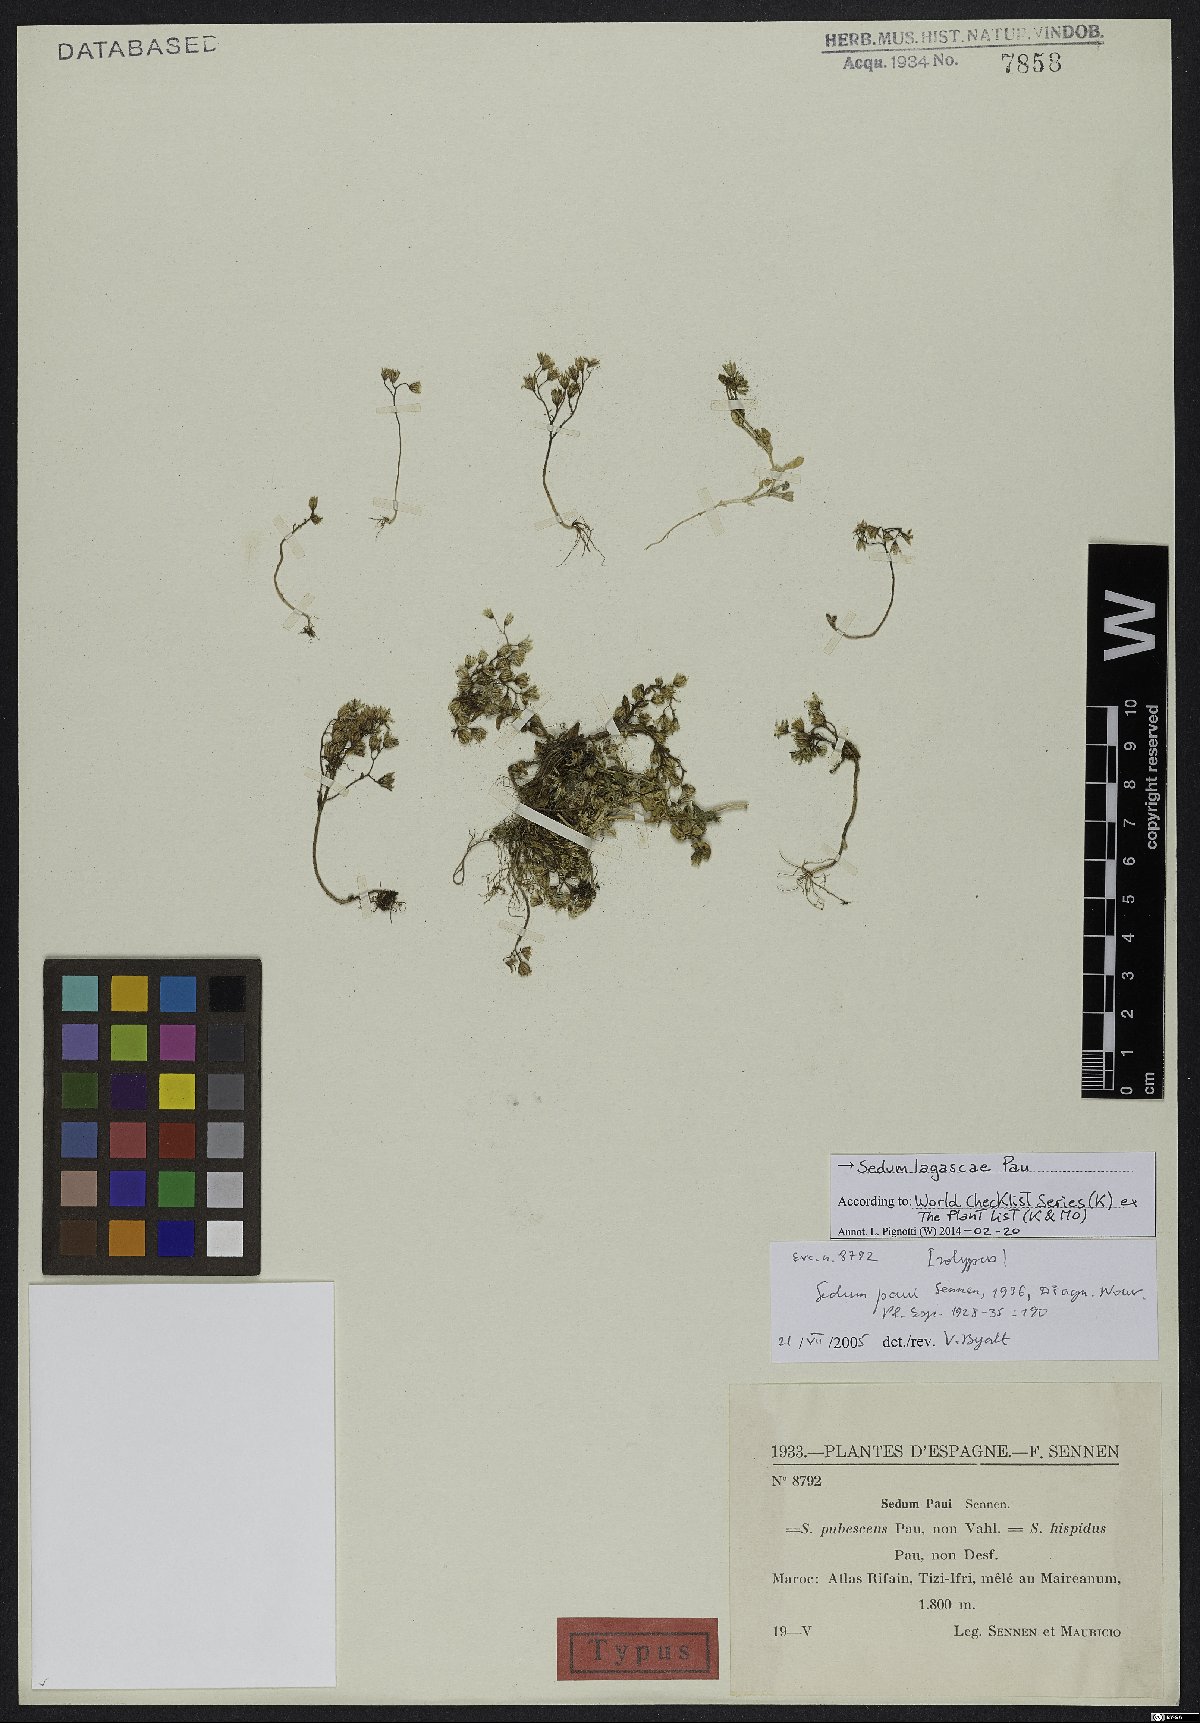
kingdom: Plantae
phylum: Tracheophyta
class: Magnoliopsida
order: Saxifragales
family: Crassulaceae
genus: Sedum
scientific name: Sedum lagascae
